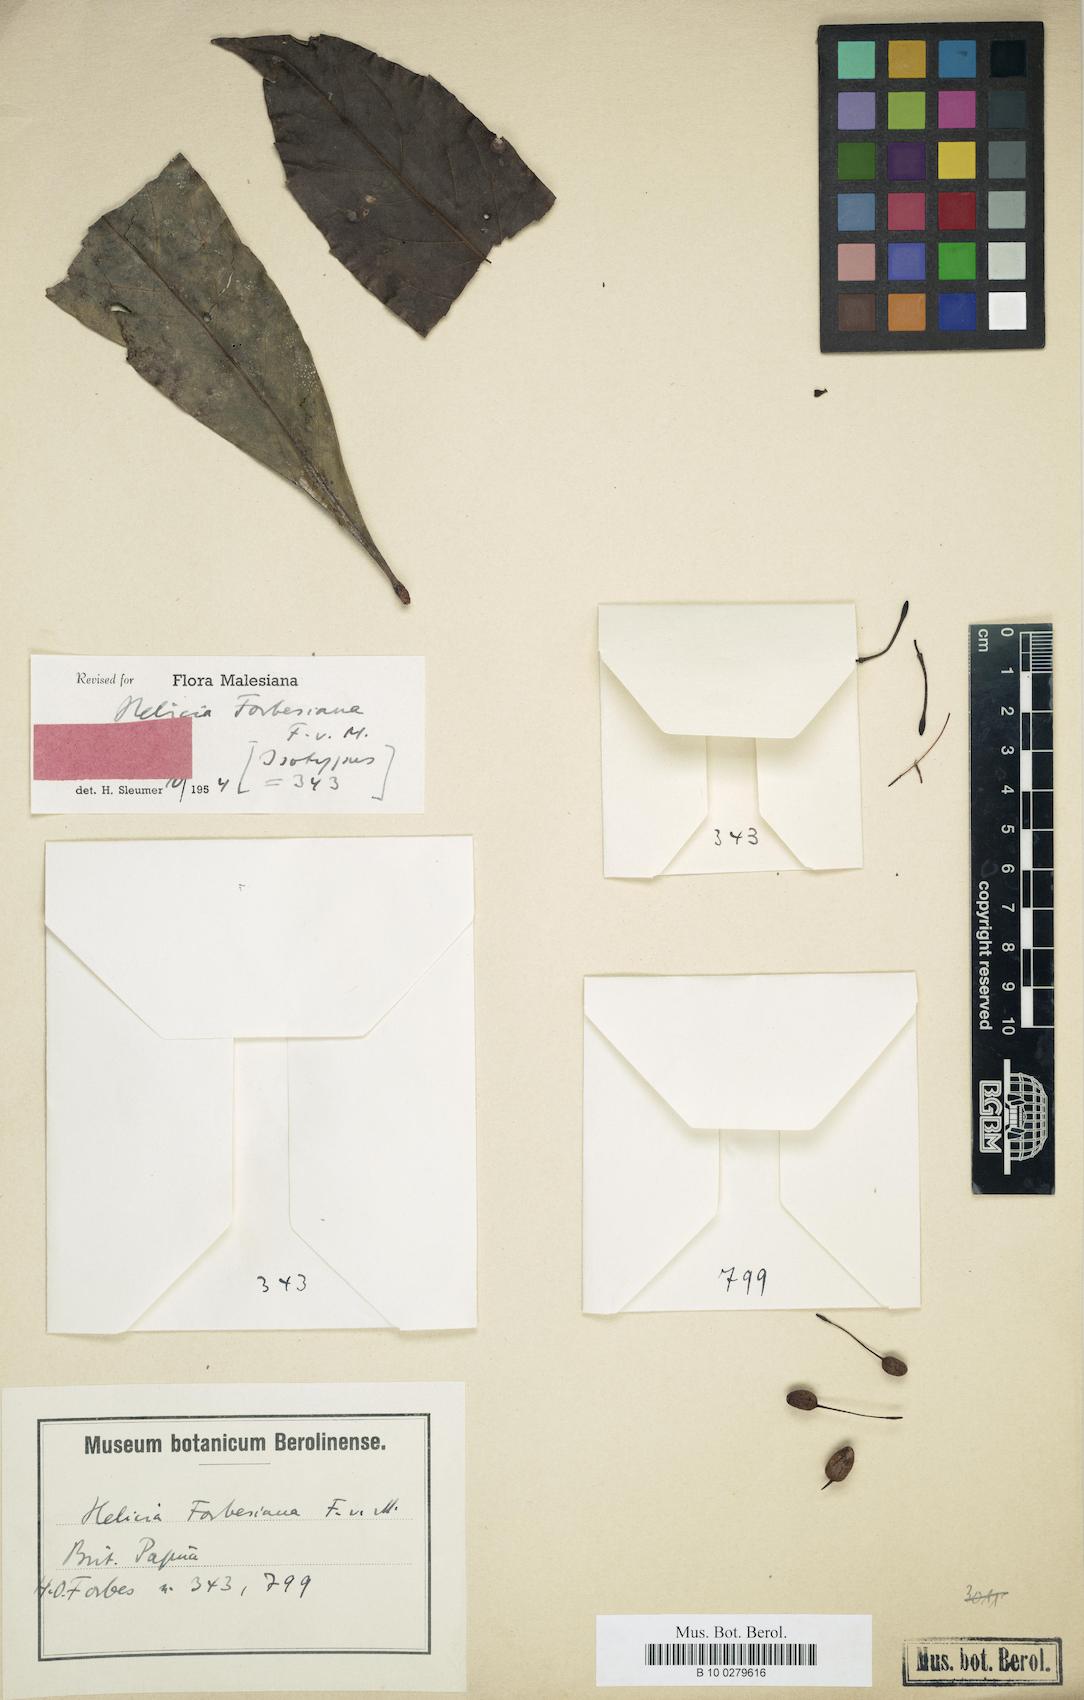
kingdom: Plantae
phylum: Tracheophyta
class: Magnoliopsida
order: Proteales
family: Proteaceae
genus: Helicia
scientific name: Helicia forbesiana
